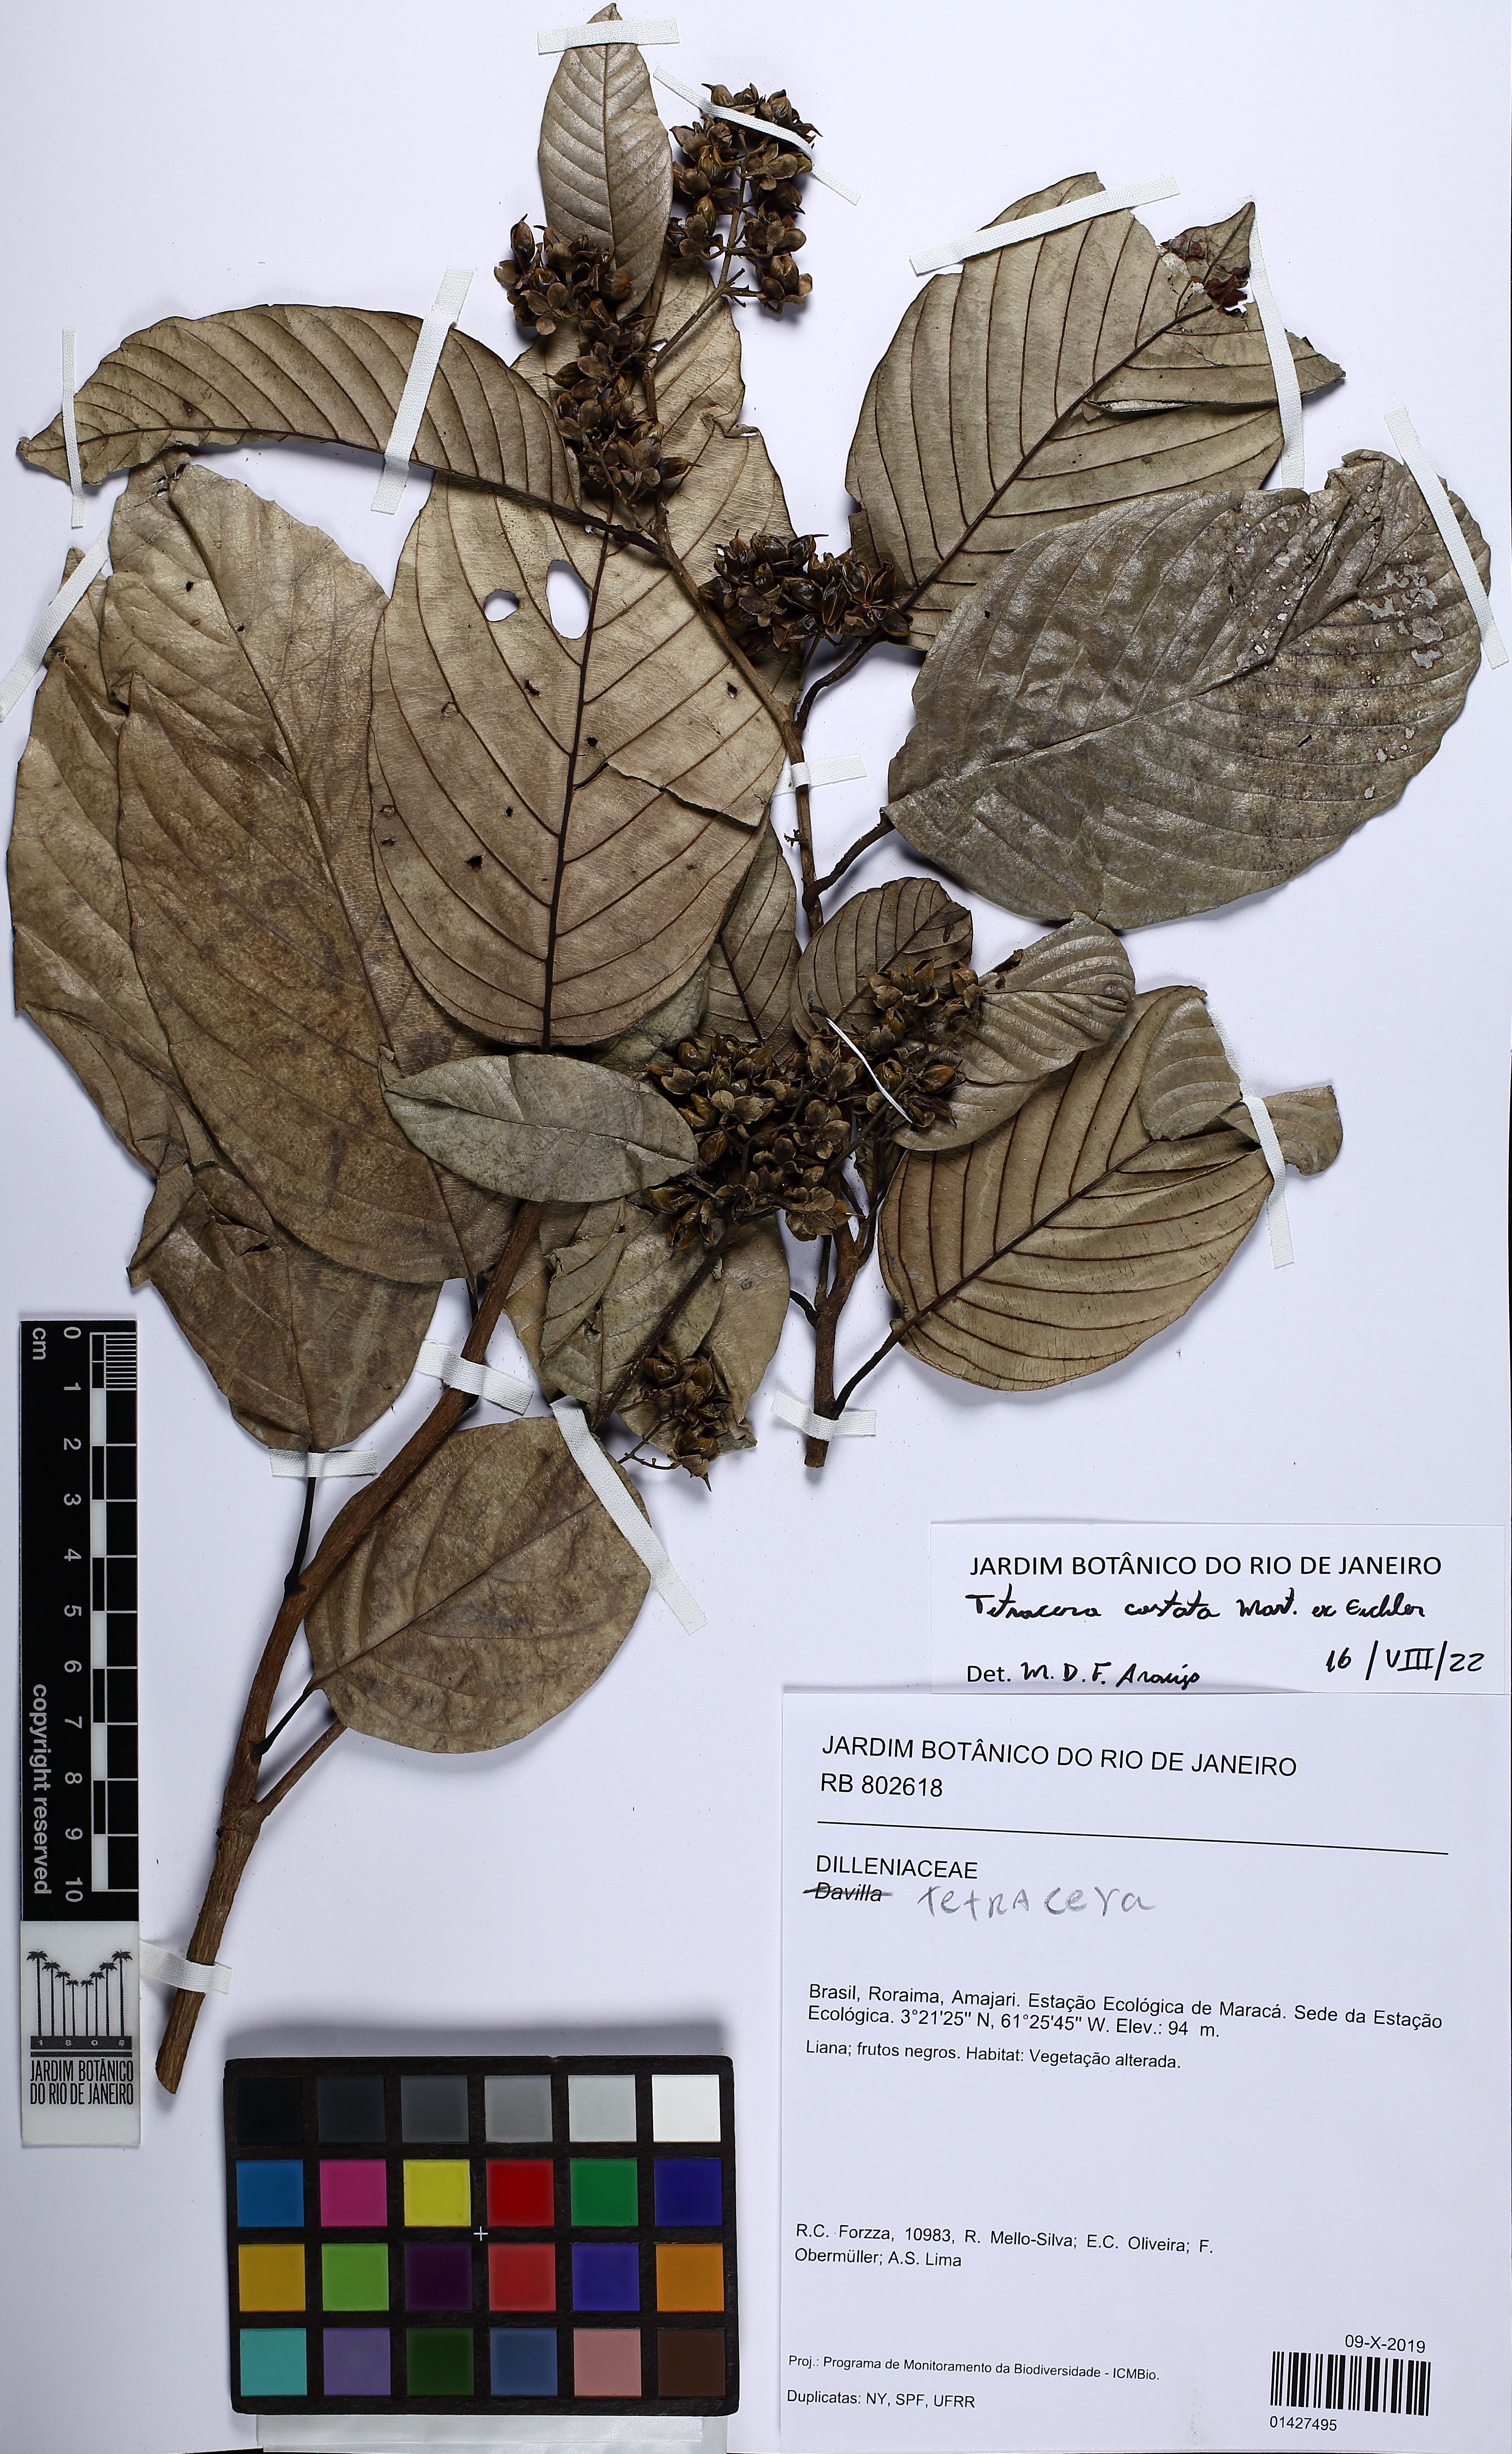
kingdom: Plantae
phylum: Tracheophyta
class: Magnoliopsida
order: Dilleniales
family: Dilleniaceae
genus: Tetracera
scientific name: Tetracera costata
